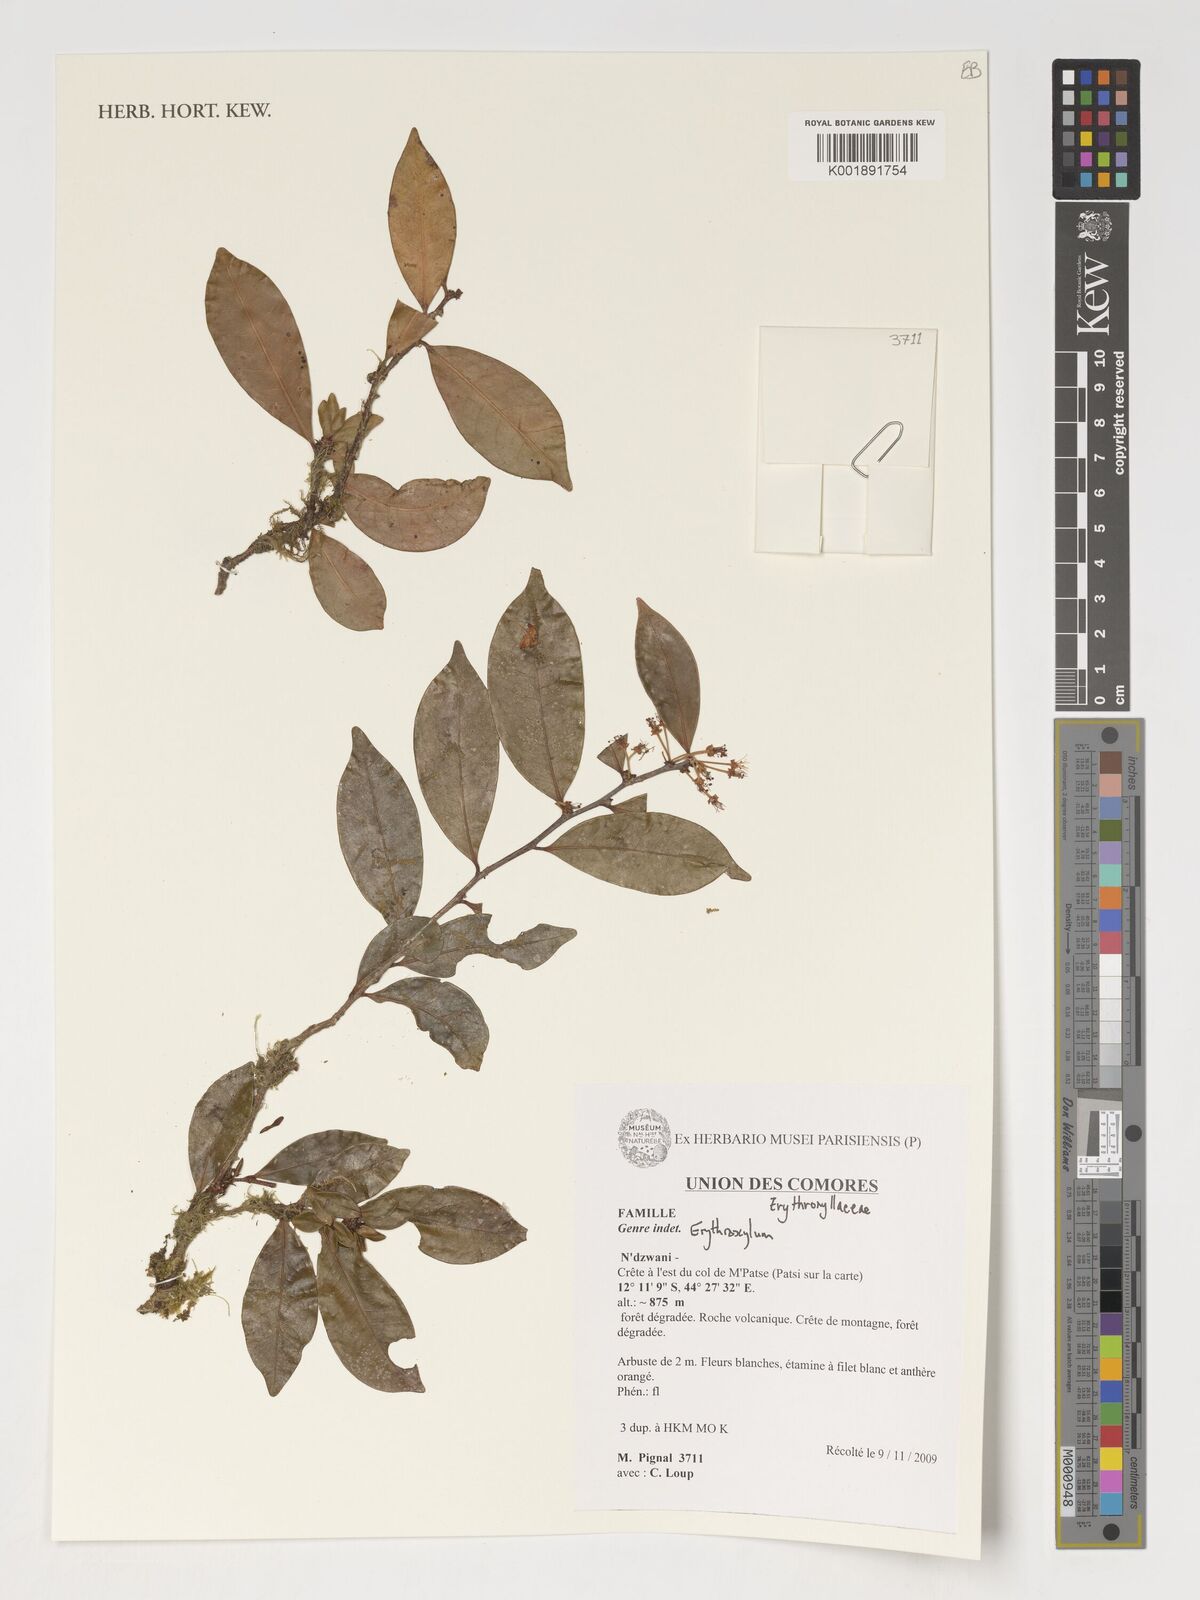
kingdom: Plantae
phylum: Tracheophyta
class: Magnoliopsida
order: Malpighiales
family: Erythroxylaceae
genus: Erythroxylum
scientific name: Erythroxylum
